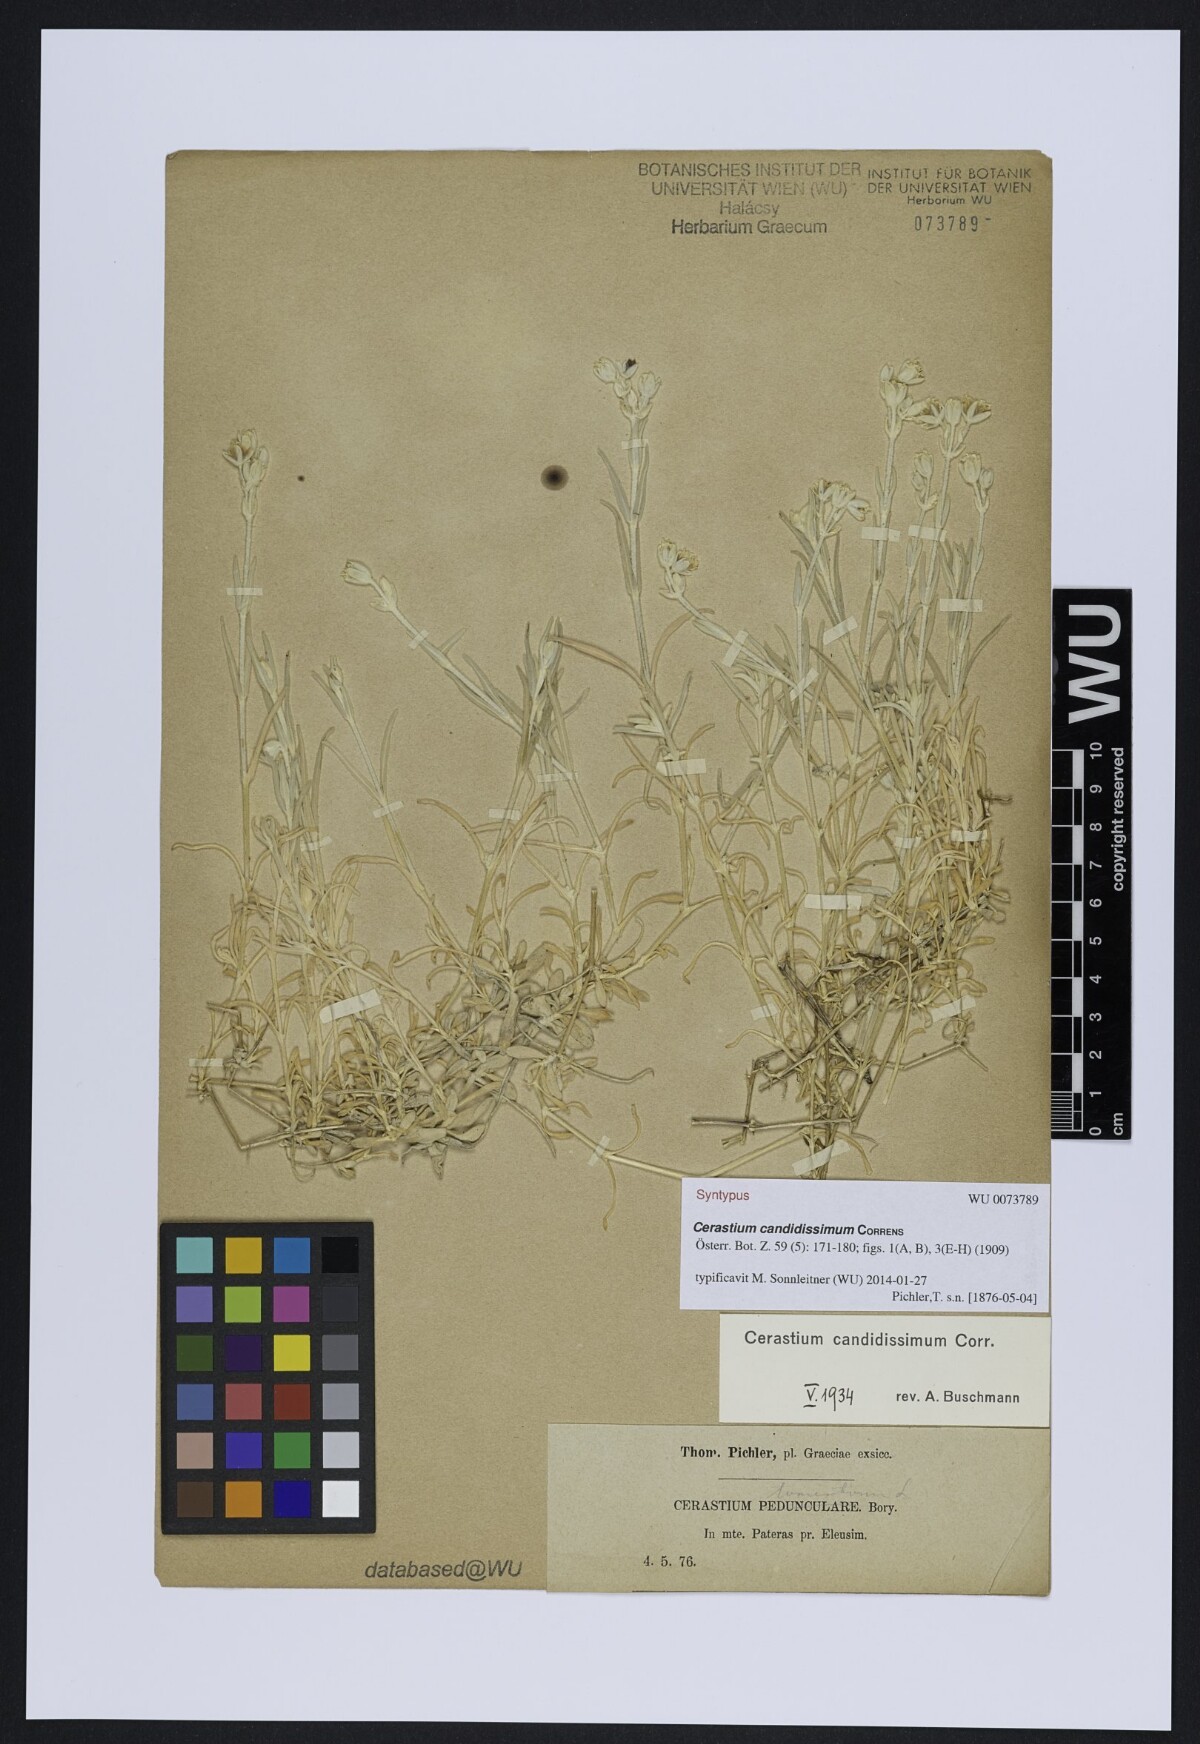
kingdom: Plantae
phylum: Tracheophyta
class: Magnoliopsida
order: Caryophyllales
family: Caryophyllaceae
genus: Cerastium
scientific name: Cerastium candidissimum
